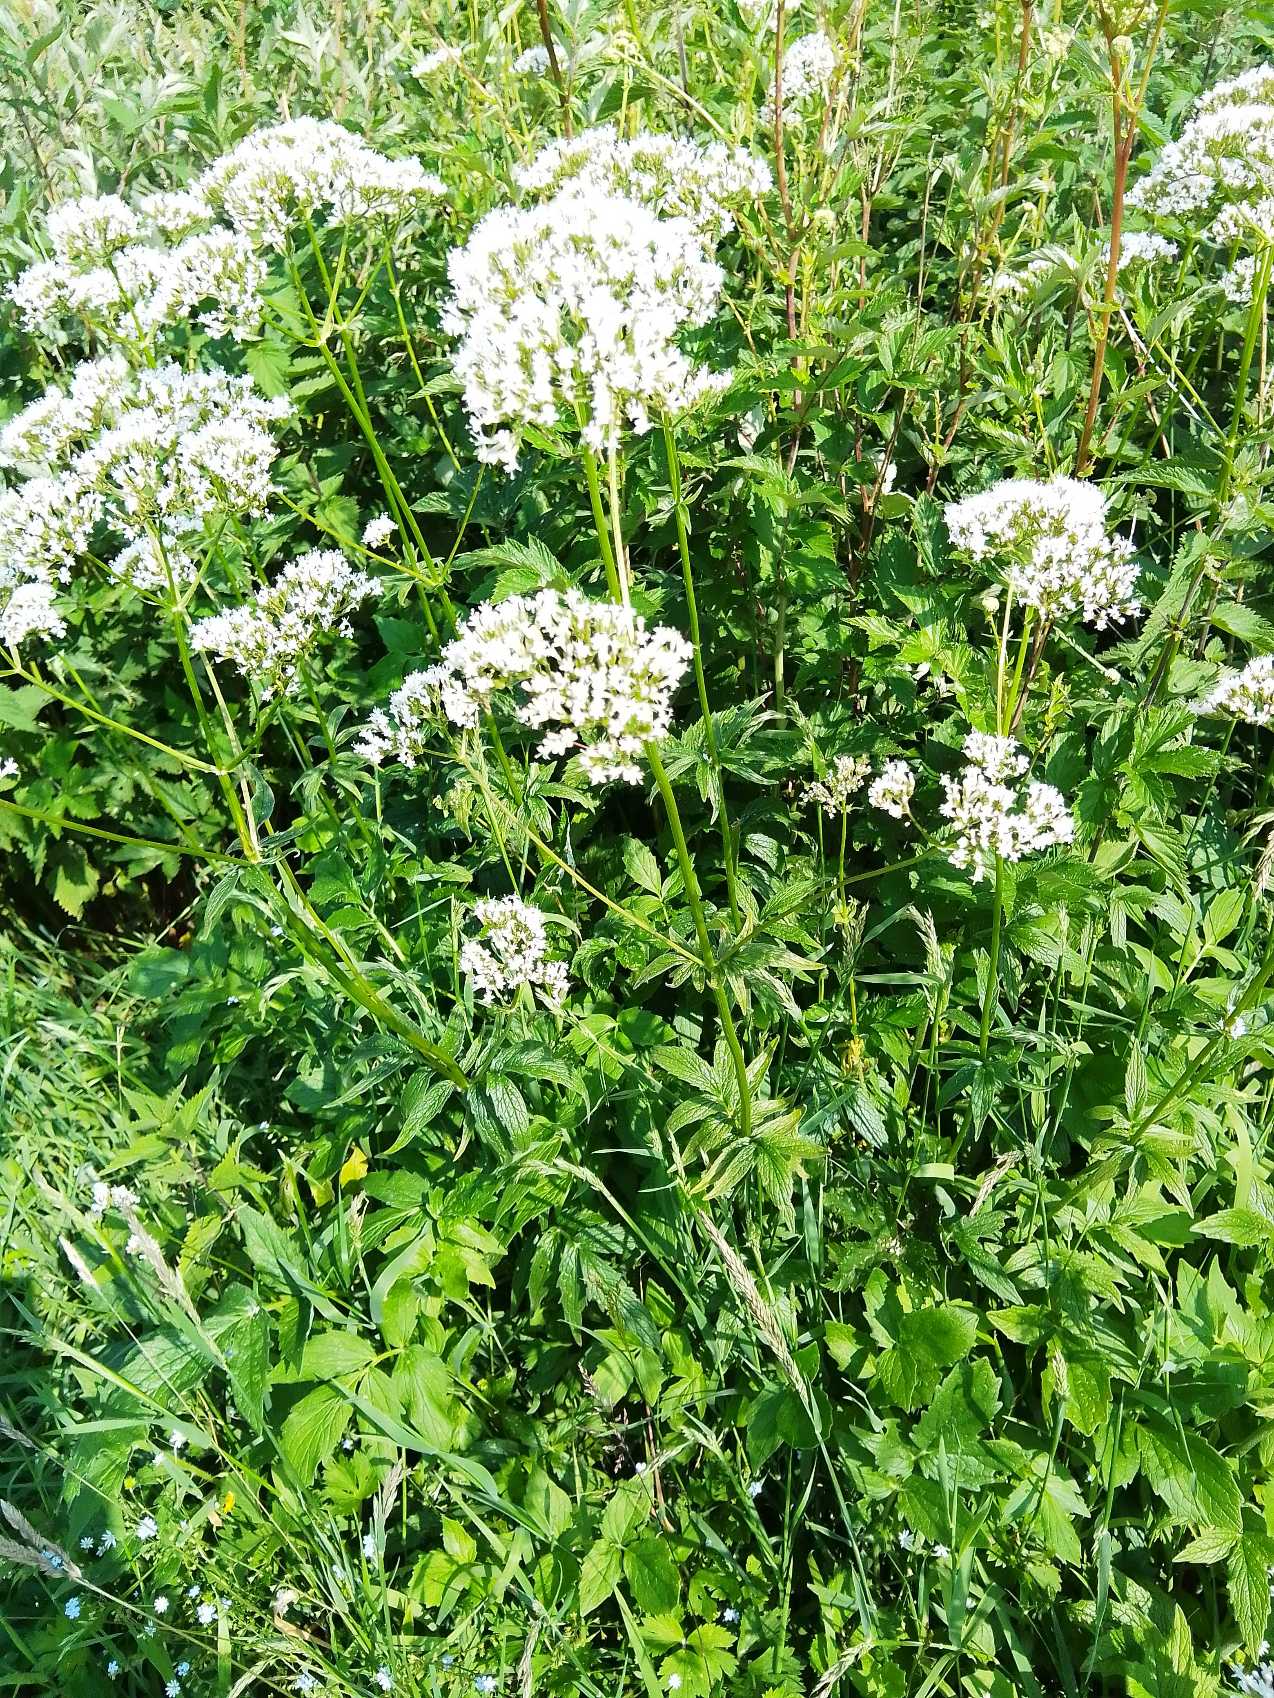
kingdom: Plantae
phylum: Tracheophyta
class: Magnoliopsida
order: Dipsacales
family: Caprifoliaceae
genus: Valeriana
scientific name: Valeriana sambucifolia
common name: Hyldebladet baldrian
